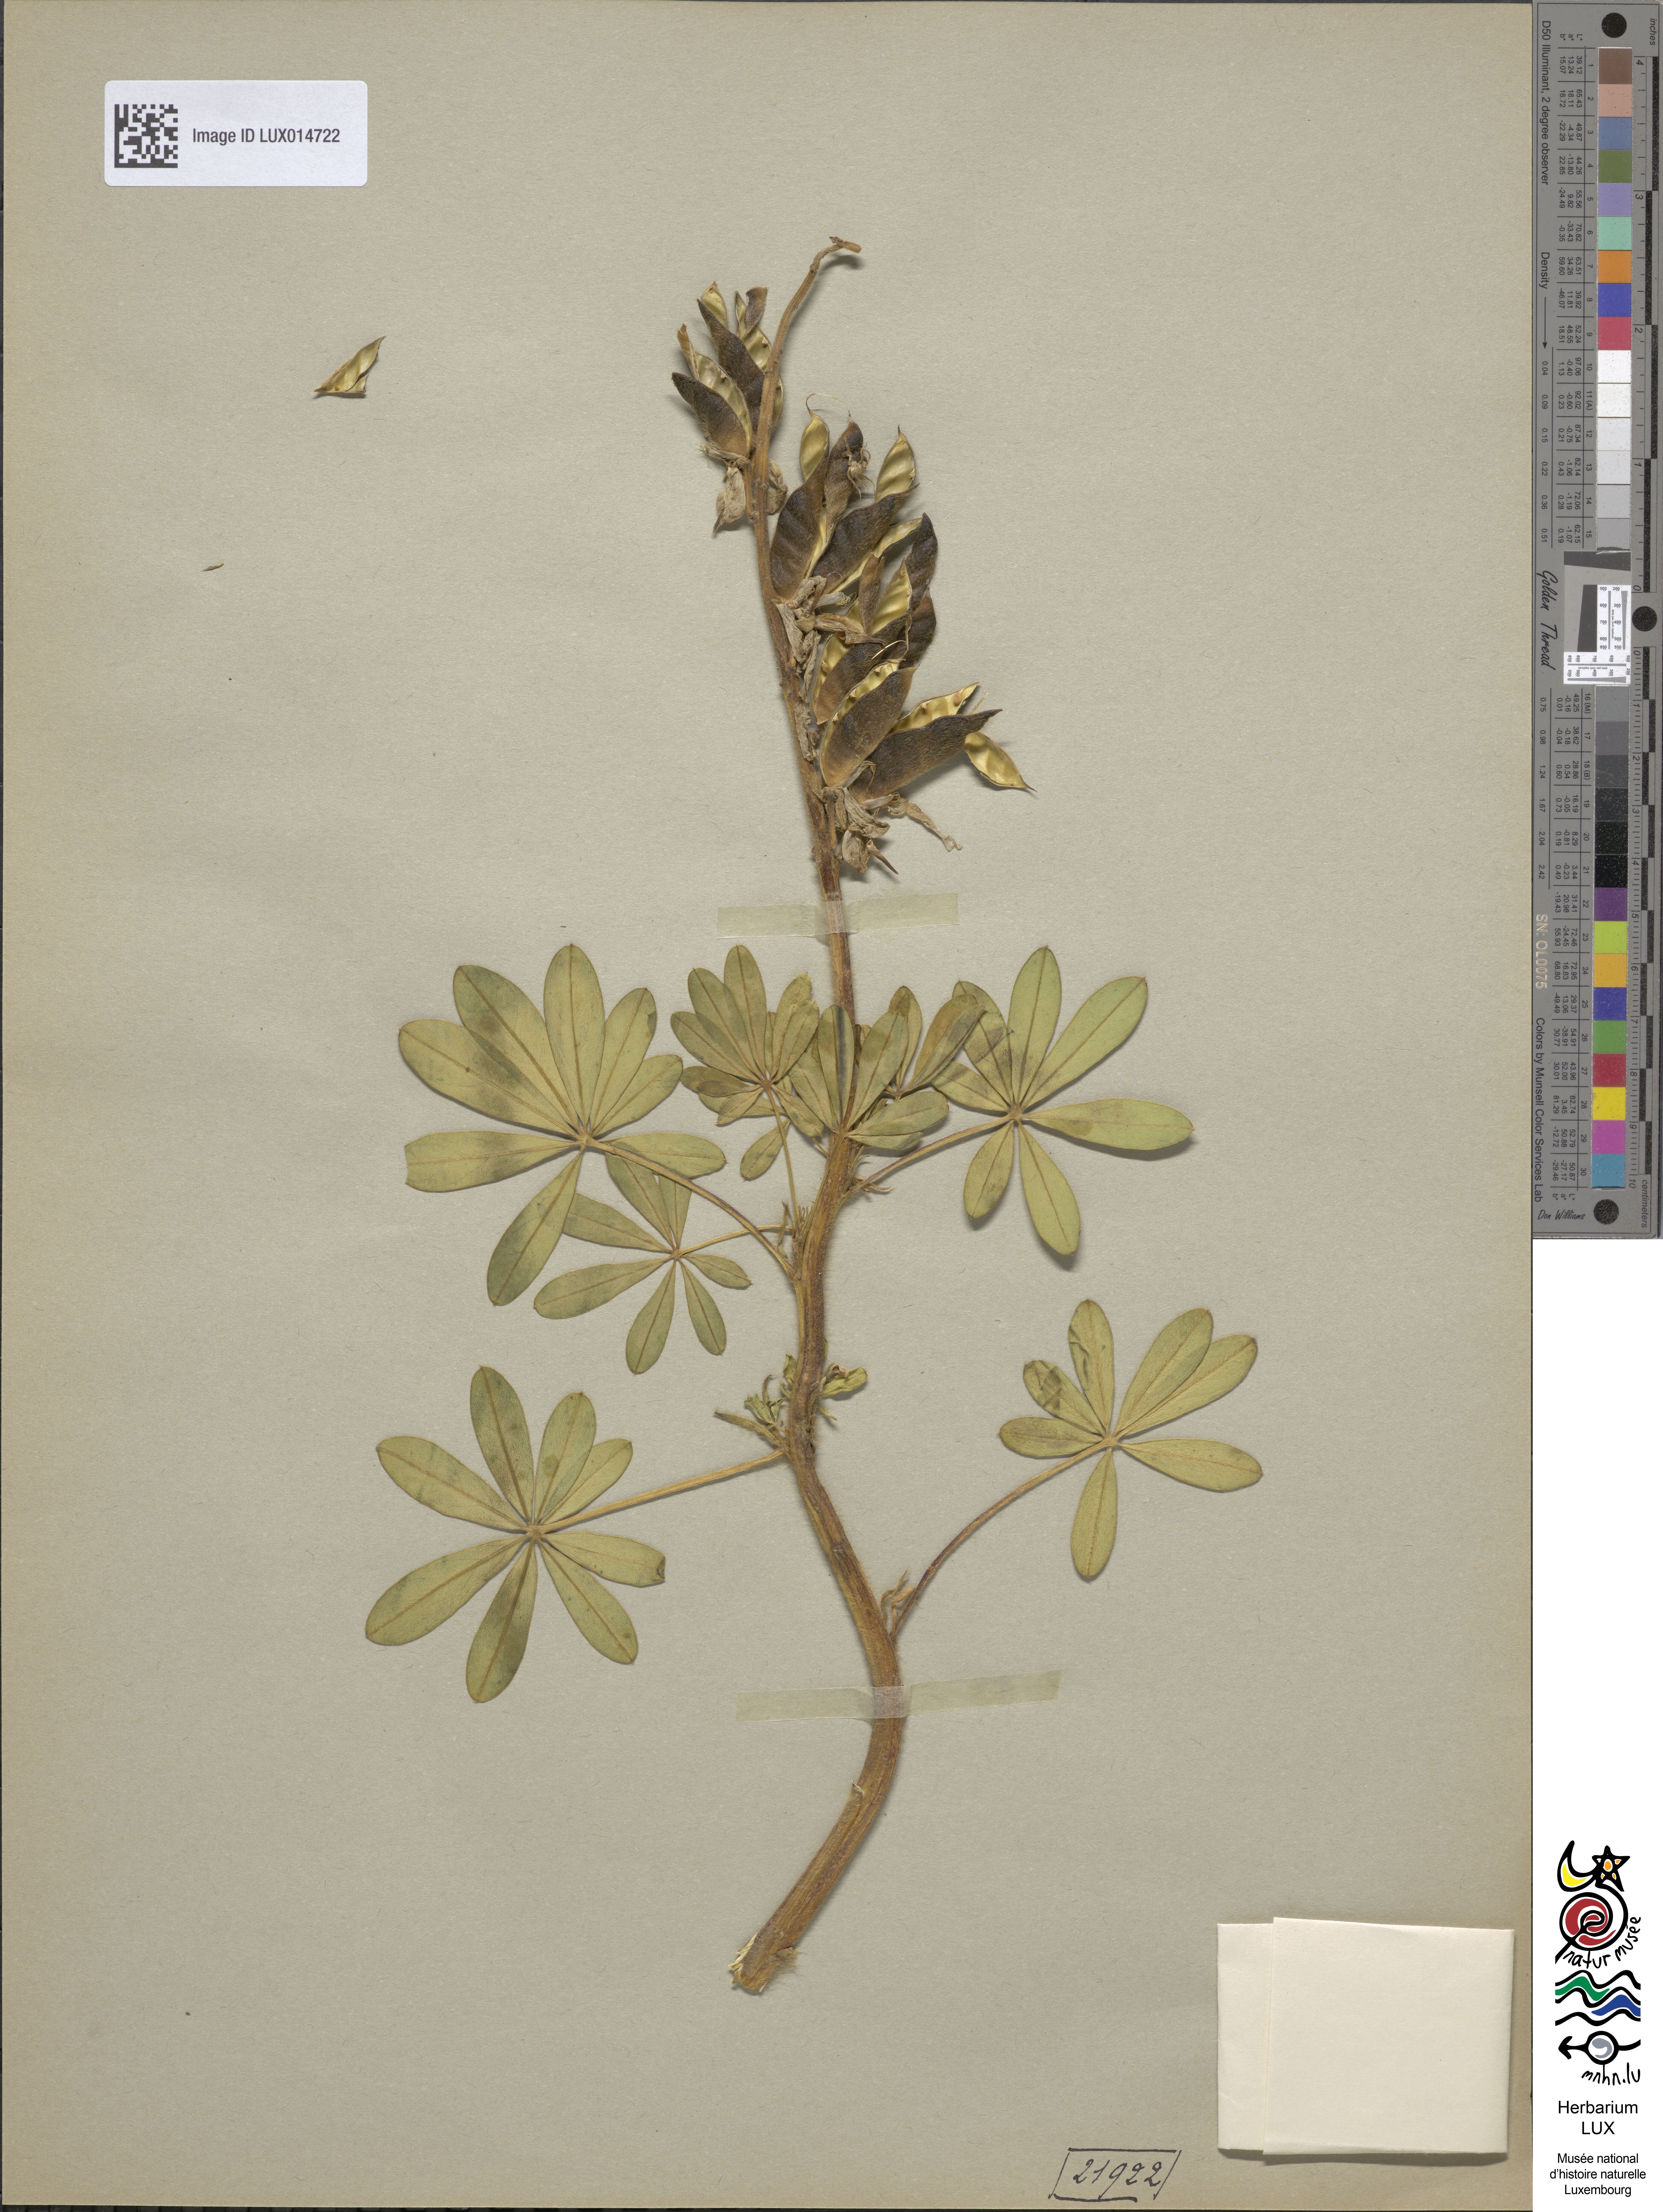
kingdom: Plantae
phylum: Tracheophyta
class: Magnoliopsida
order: Fabales
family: Fabaceae
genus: Lupinus
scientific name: Lupinus nootkatensis
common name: Nootka lupine
